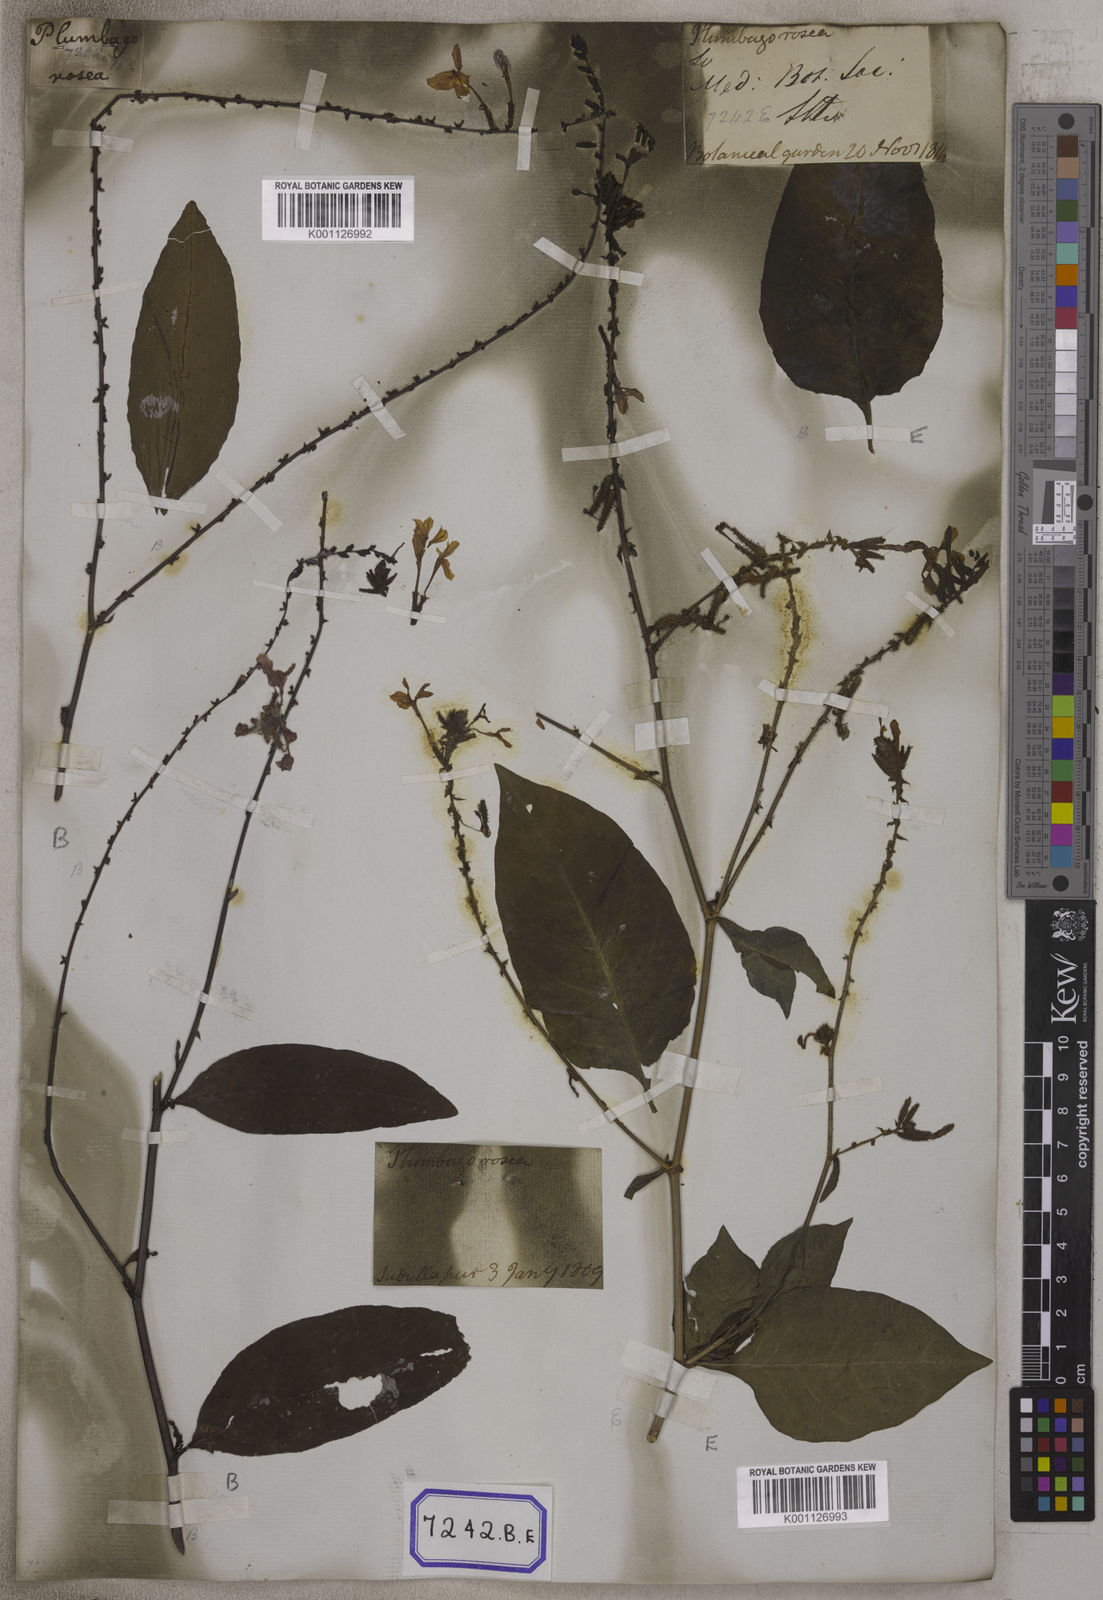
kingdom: Plantae
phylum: Tracheophyta
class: Magnoliopsida
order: Caryophyllales
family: Plumbaginaceae
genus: Plumbago
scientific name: Plumbago indica
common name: Indian leadwort
